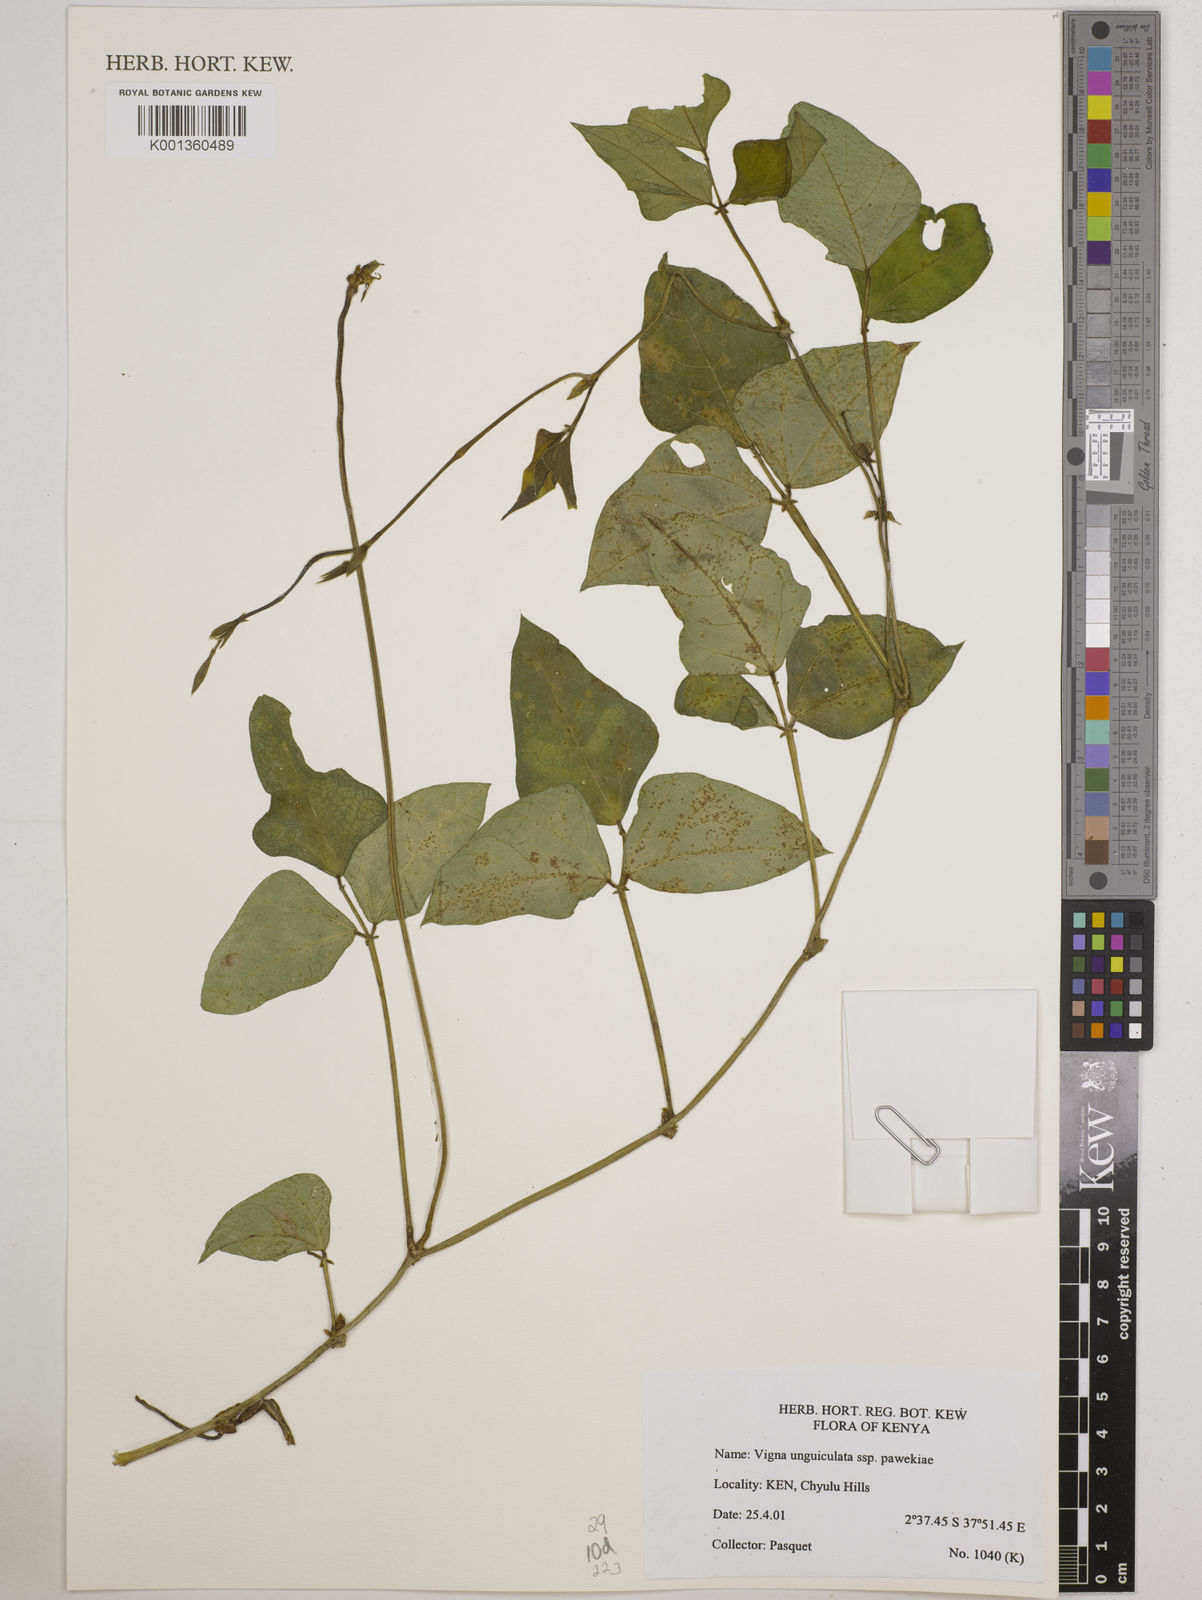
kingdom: Plantae
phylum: Tracheophyta
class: Magnoliopsida
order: Fabales
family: Fabaceae
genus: Vigna
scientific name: Vigna unguiculata
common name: Cowpea
